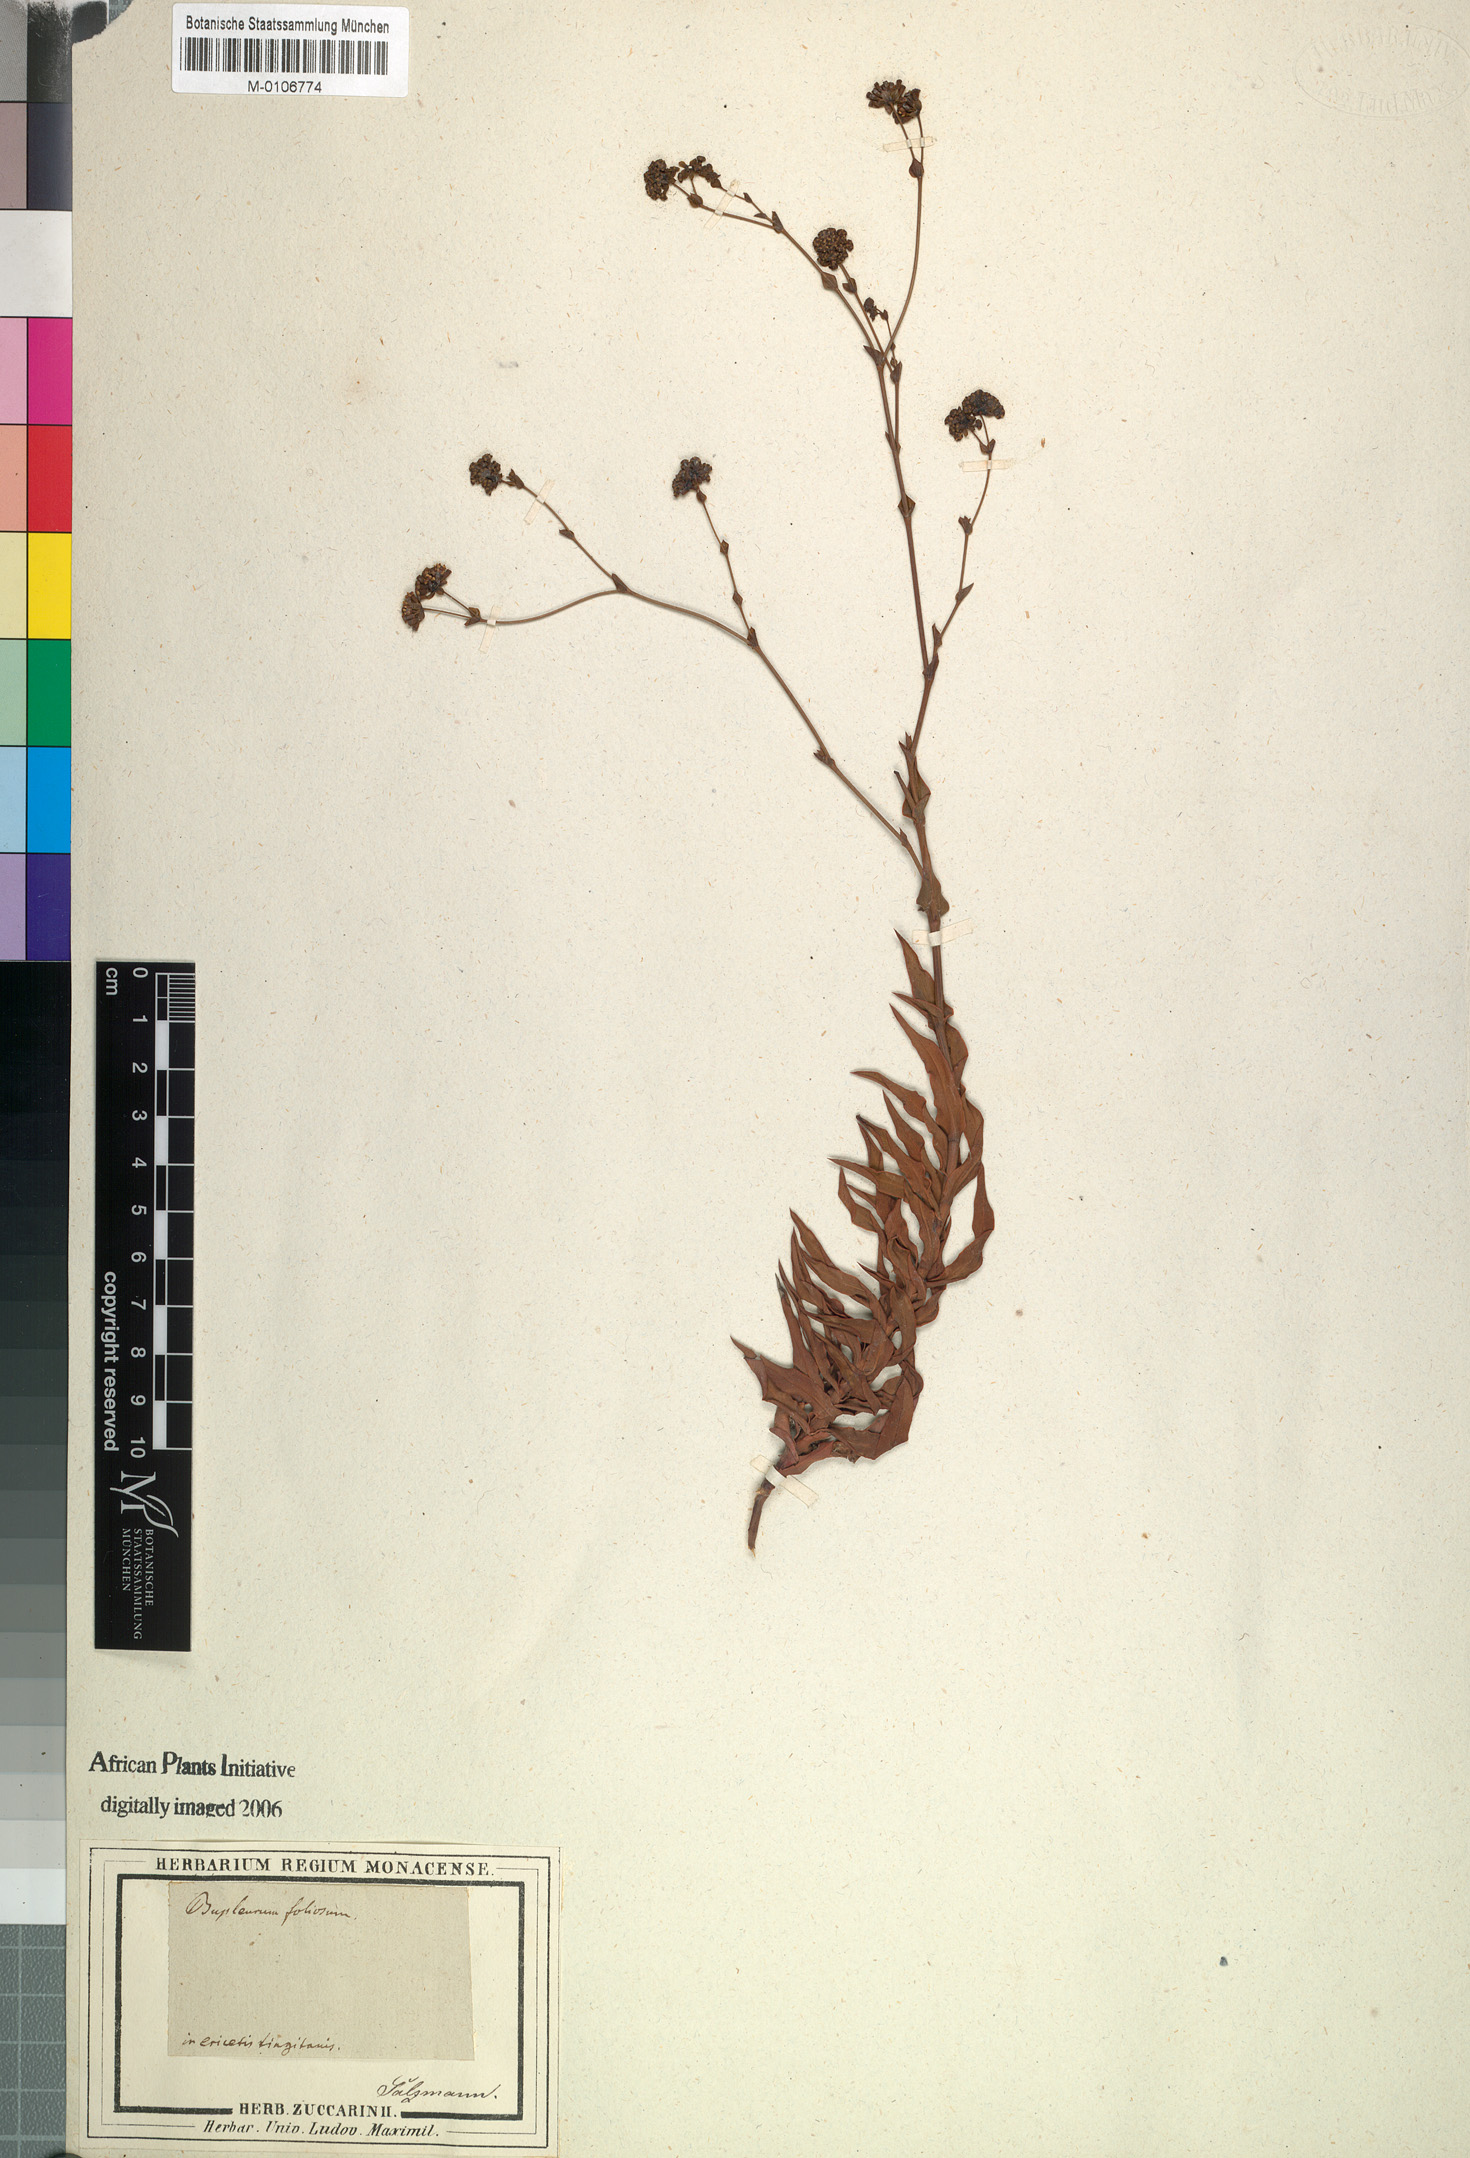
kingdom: Plantae
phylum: Tracheophyta
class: Magnoliopsida
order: Apiales
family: Apiaceae
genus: Bupleurum
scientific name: Bupleurum foliosum
